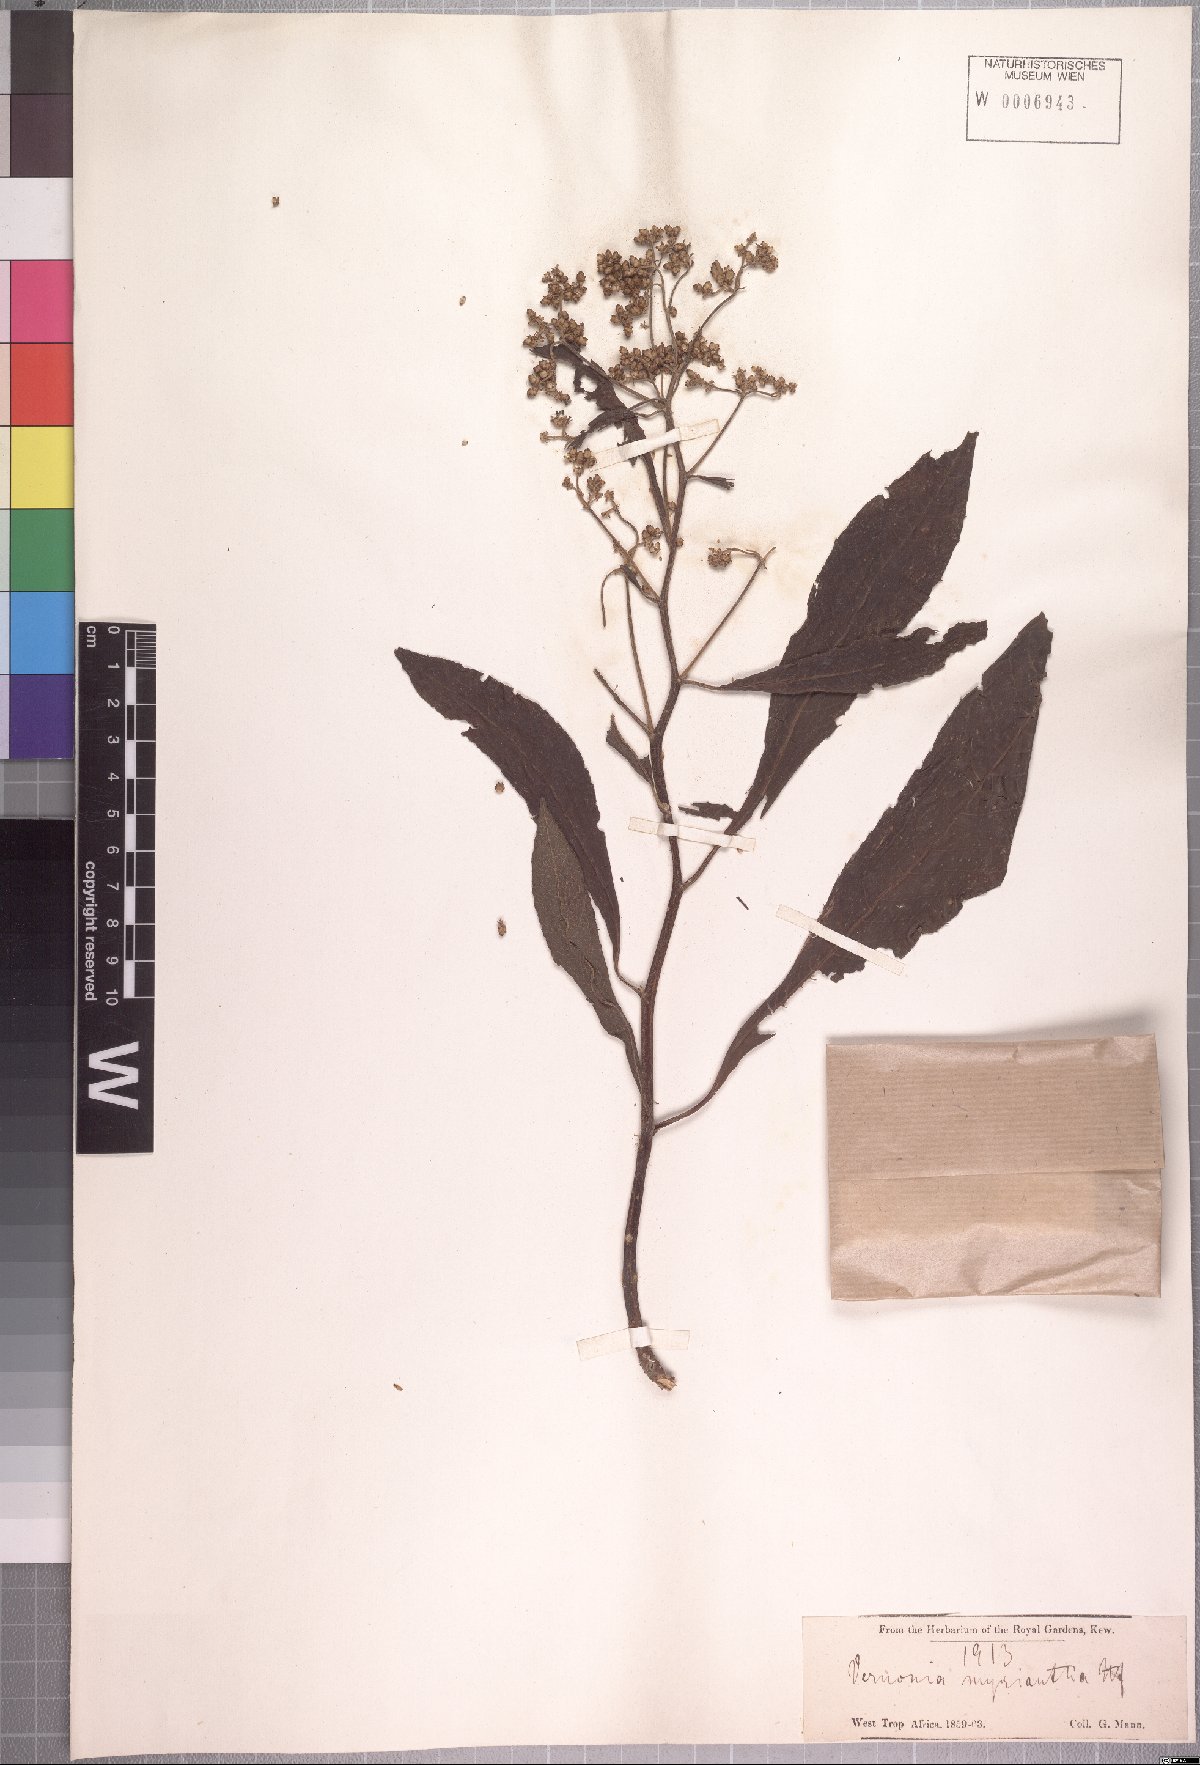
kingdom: Plantae
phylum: Tracheophyta
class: Magnoliopsida
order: Asterales
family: Asteraceae
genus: Gymnanthemum
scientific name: Gymnanthemum myrianthum
